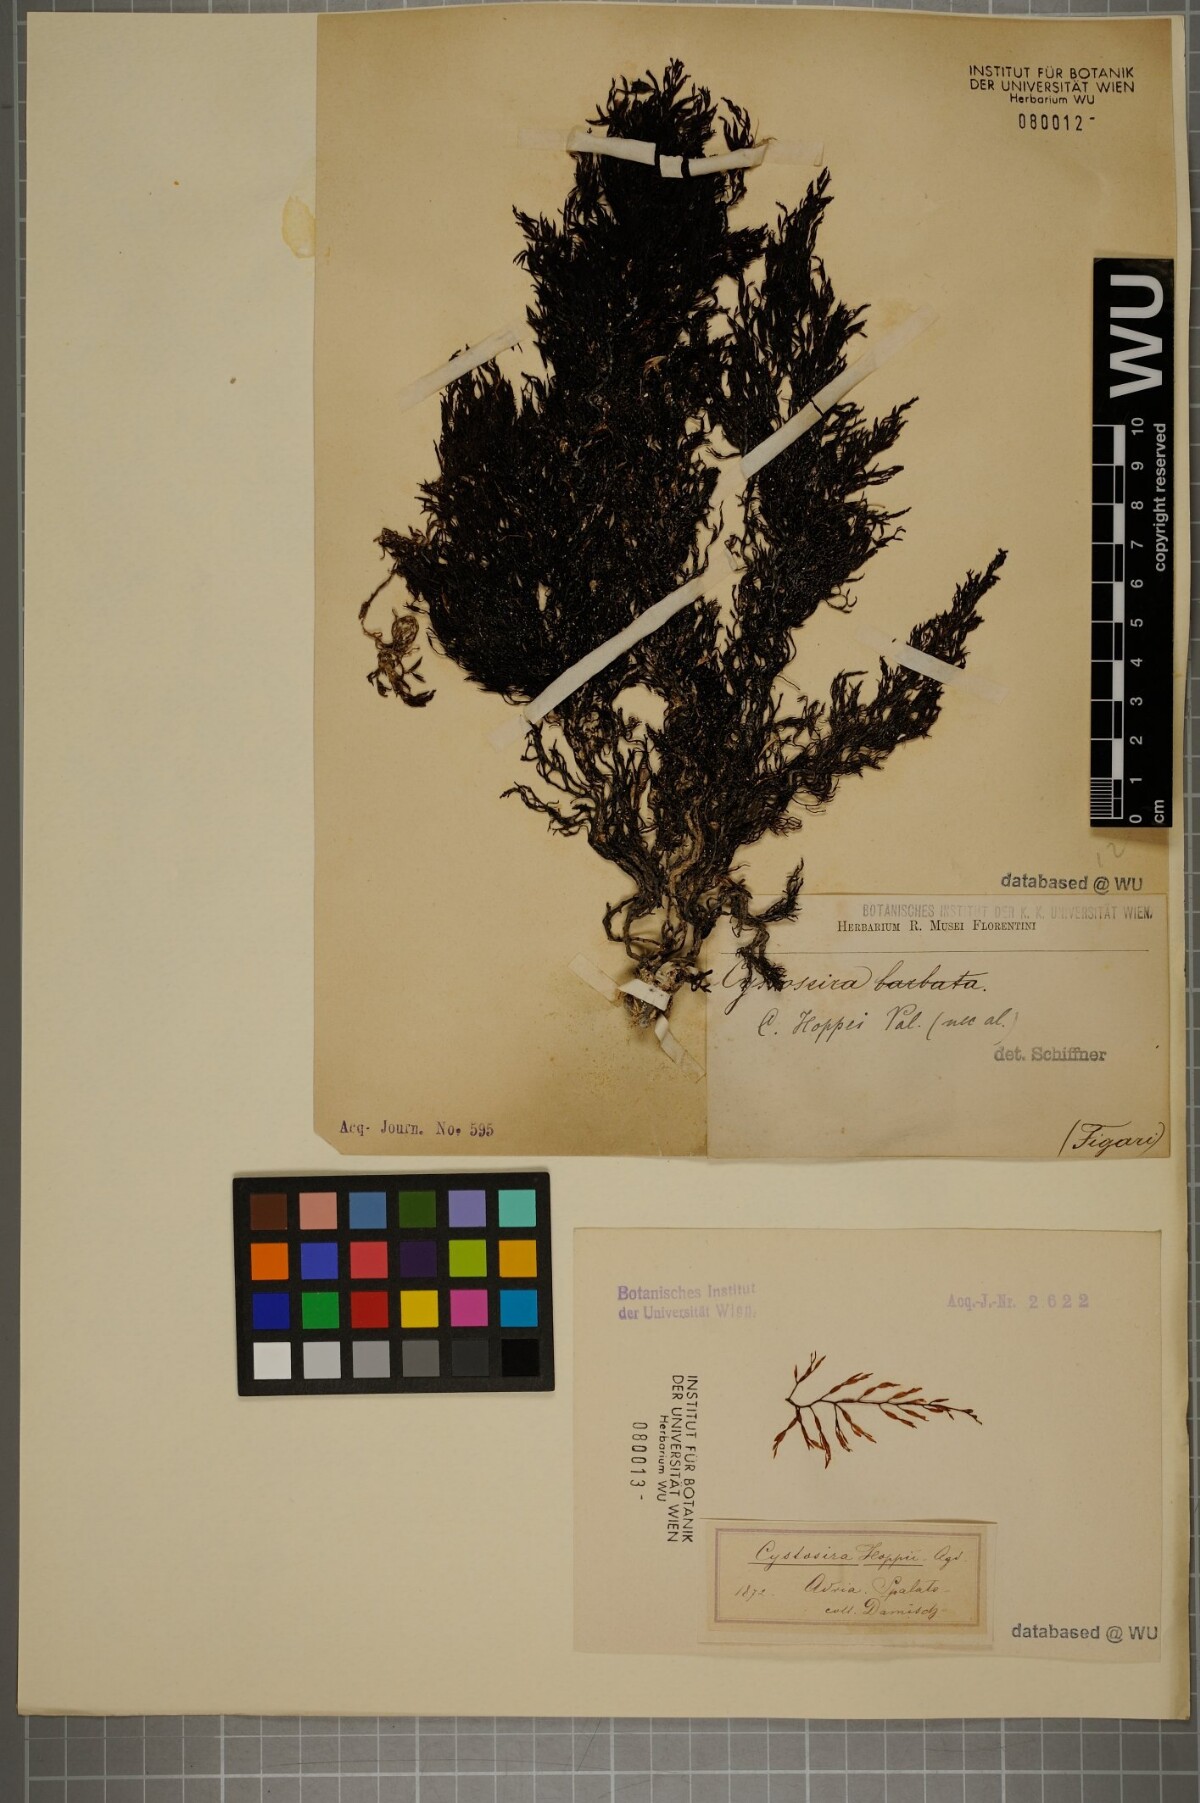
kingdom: Chromista
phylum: Ochrophyta
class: Phaeophyceae
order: Fucales
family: Sargassaceae
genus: Cystoseira
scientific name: Cystoseira Gongolaria barbata
